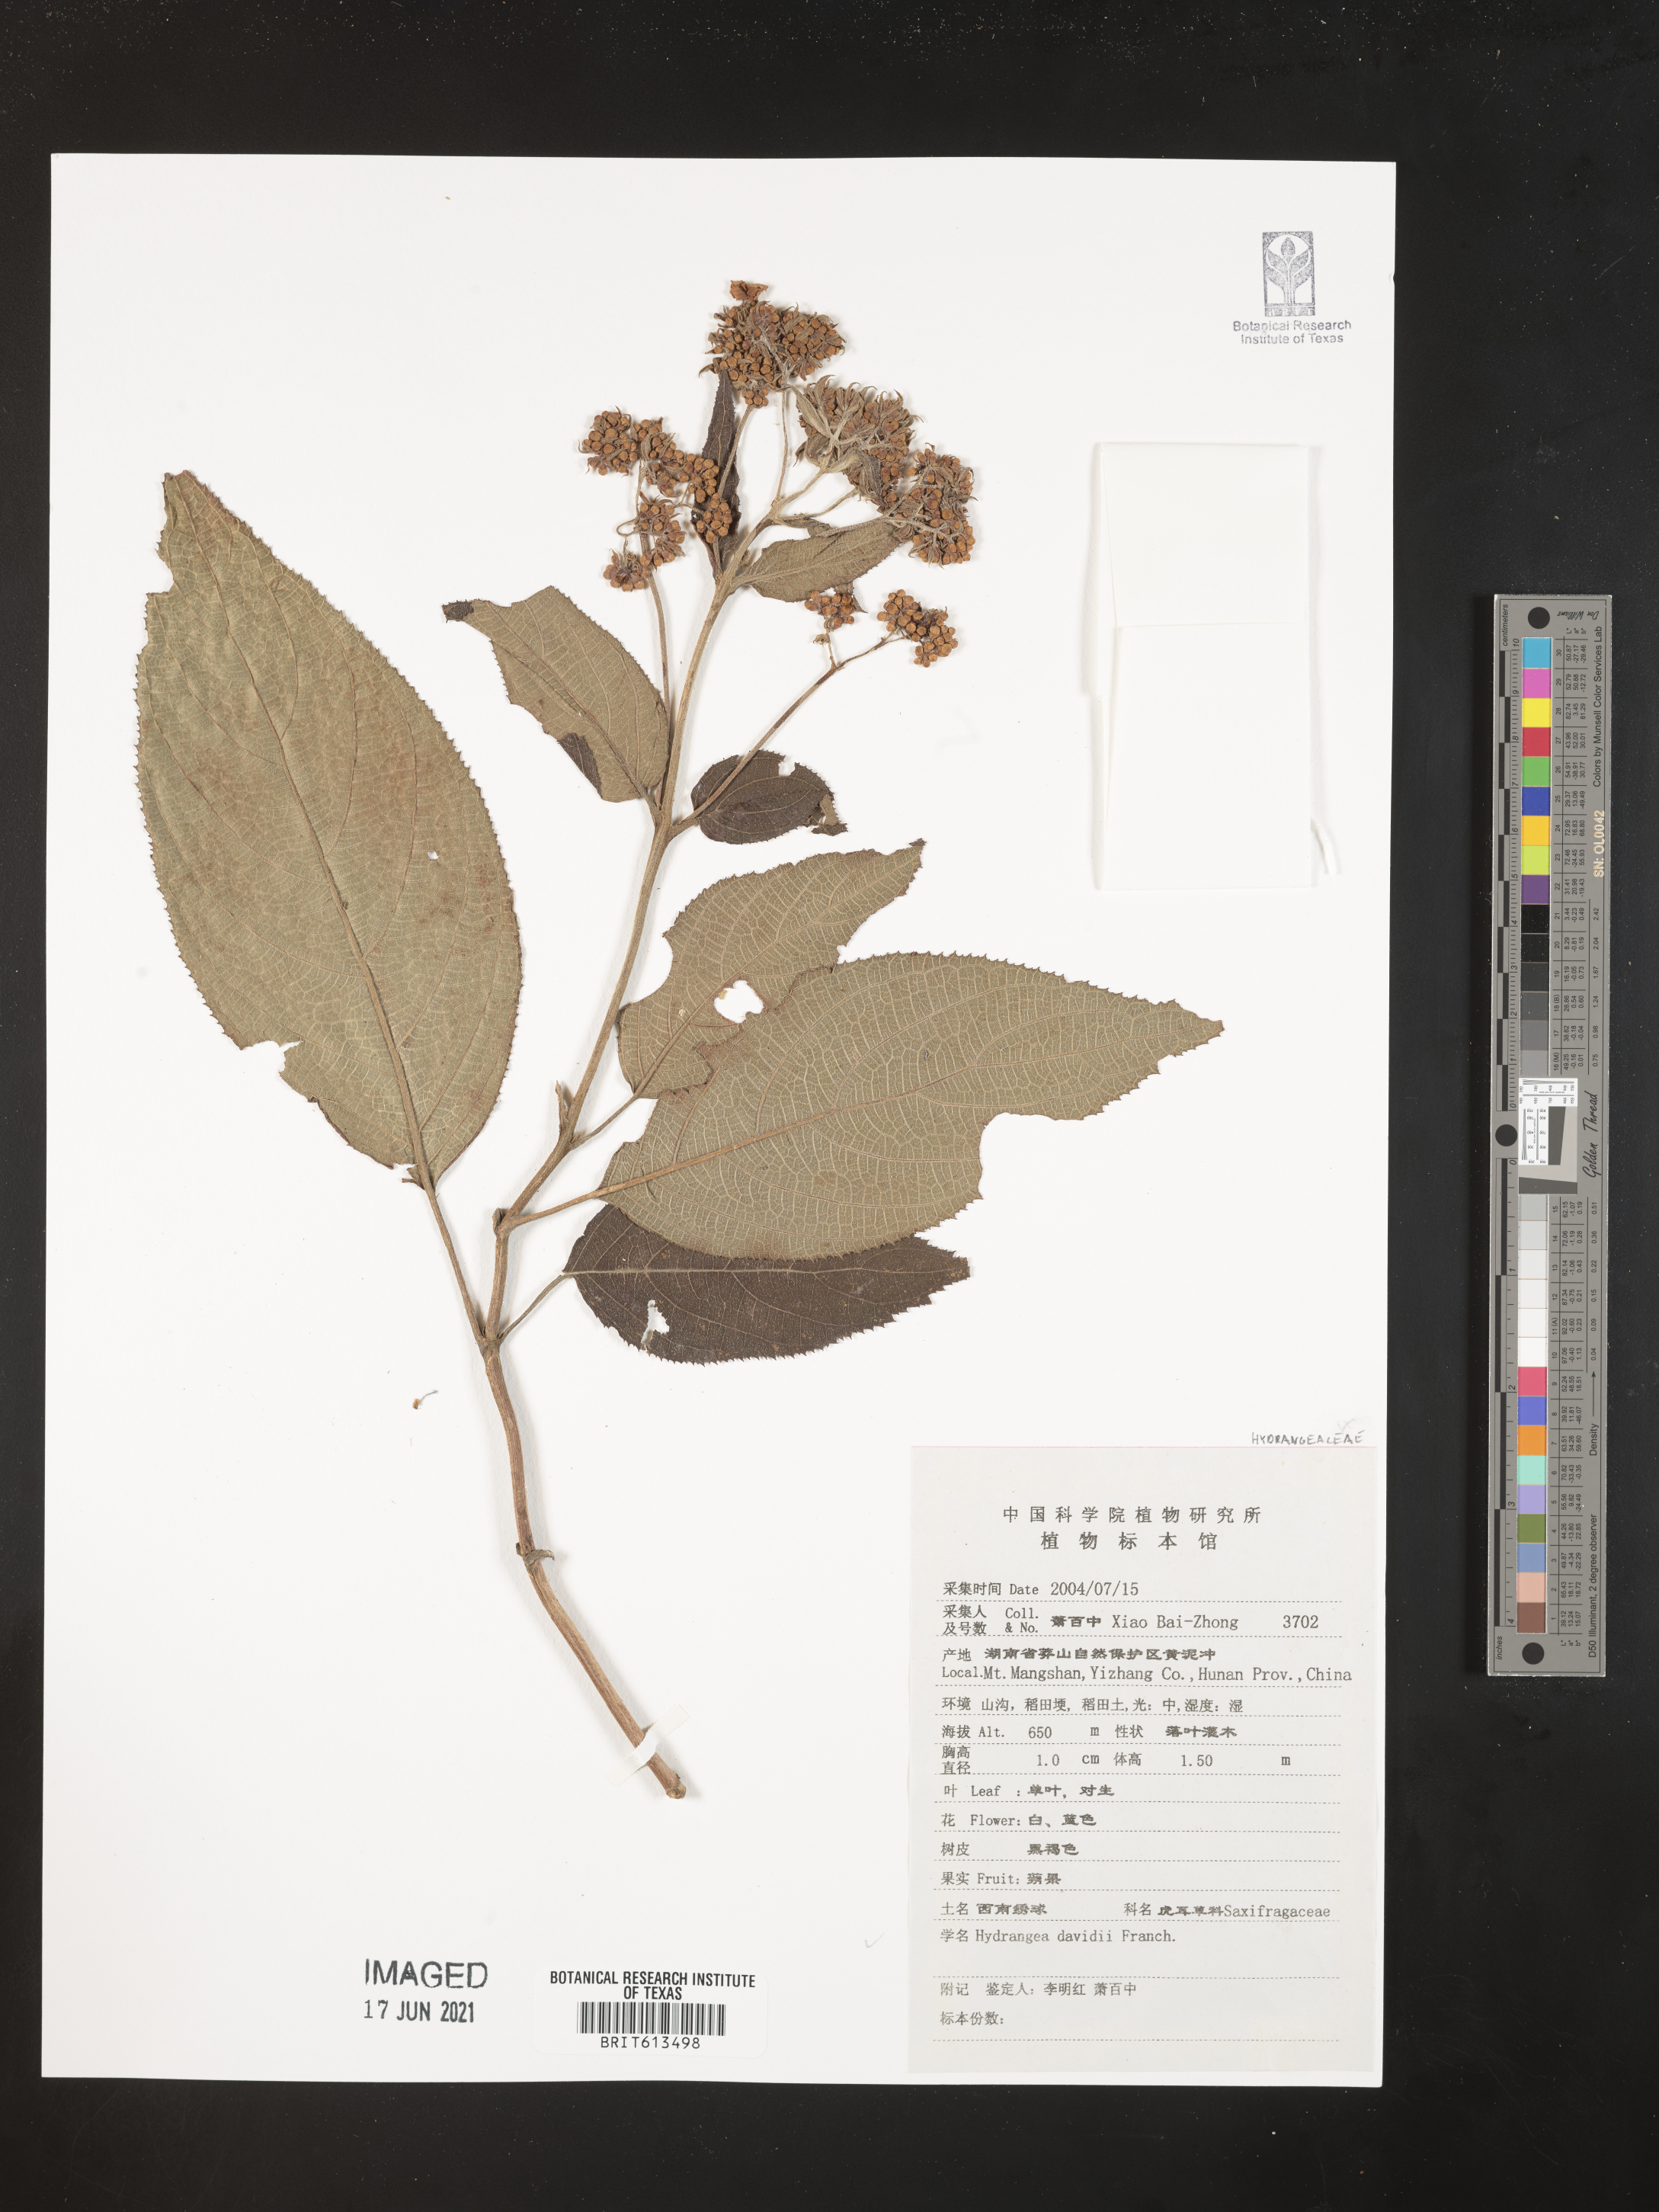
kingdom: Plantae
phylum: Tracheophyta
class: Magnoliopsida
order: Cornales
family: Hydrangeaceae
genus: Hydrangea
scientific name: Hydrangea davidii
